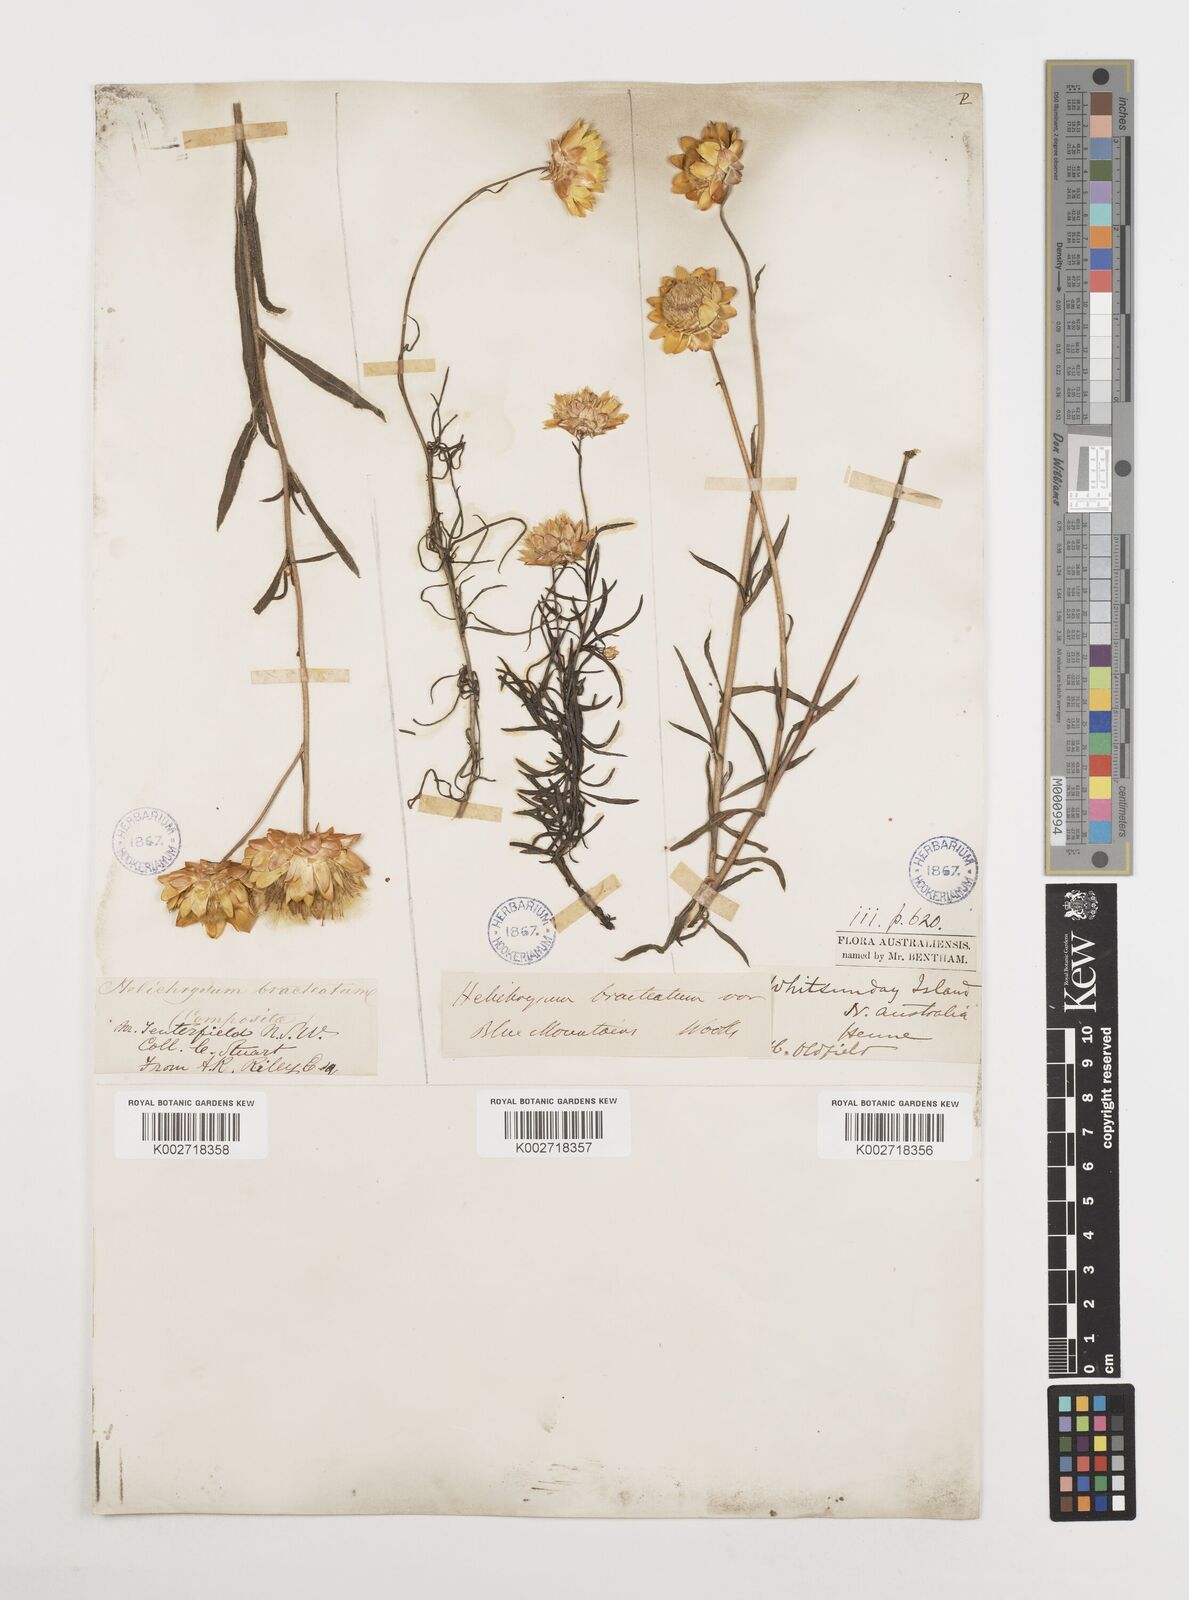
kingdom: Plantae
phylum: Tracheophyta
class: Magnoliopsida
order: Asterales
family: Asteraceae
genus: Xerochrysum
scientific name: Xerochrysum bracteatum
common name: Bracted strawflower
